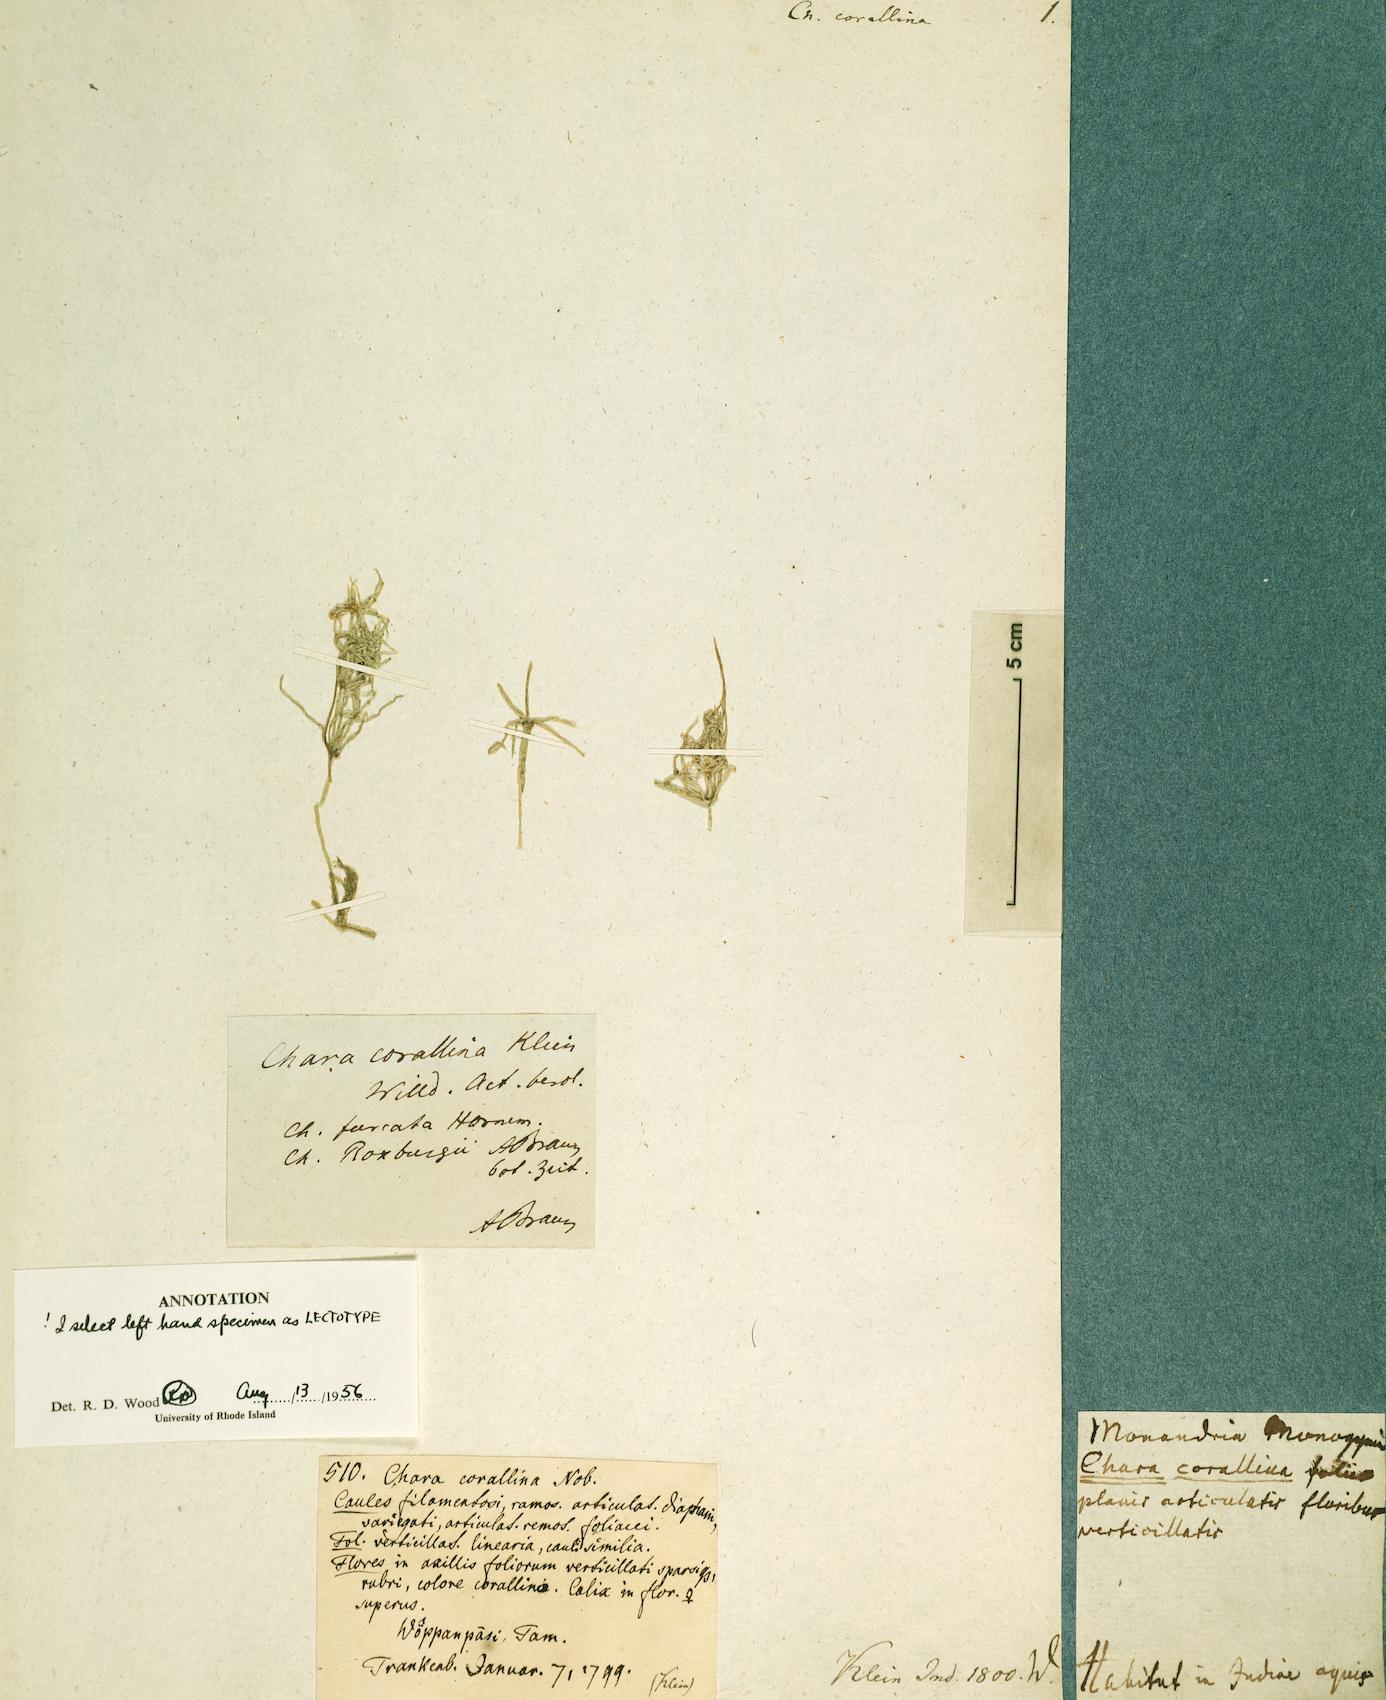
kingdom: Plantae
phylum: Charophyta
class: Charophyceae
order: Charales
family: Characeae
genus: Chara
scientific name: Chara corallina
